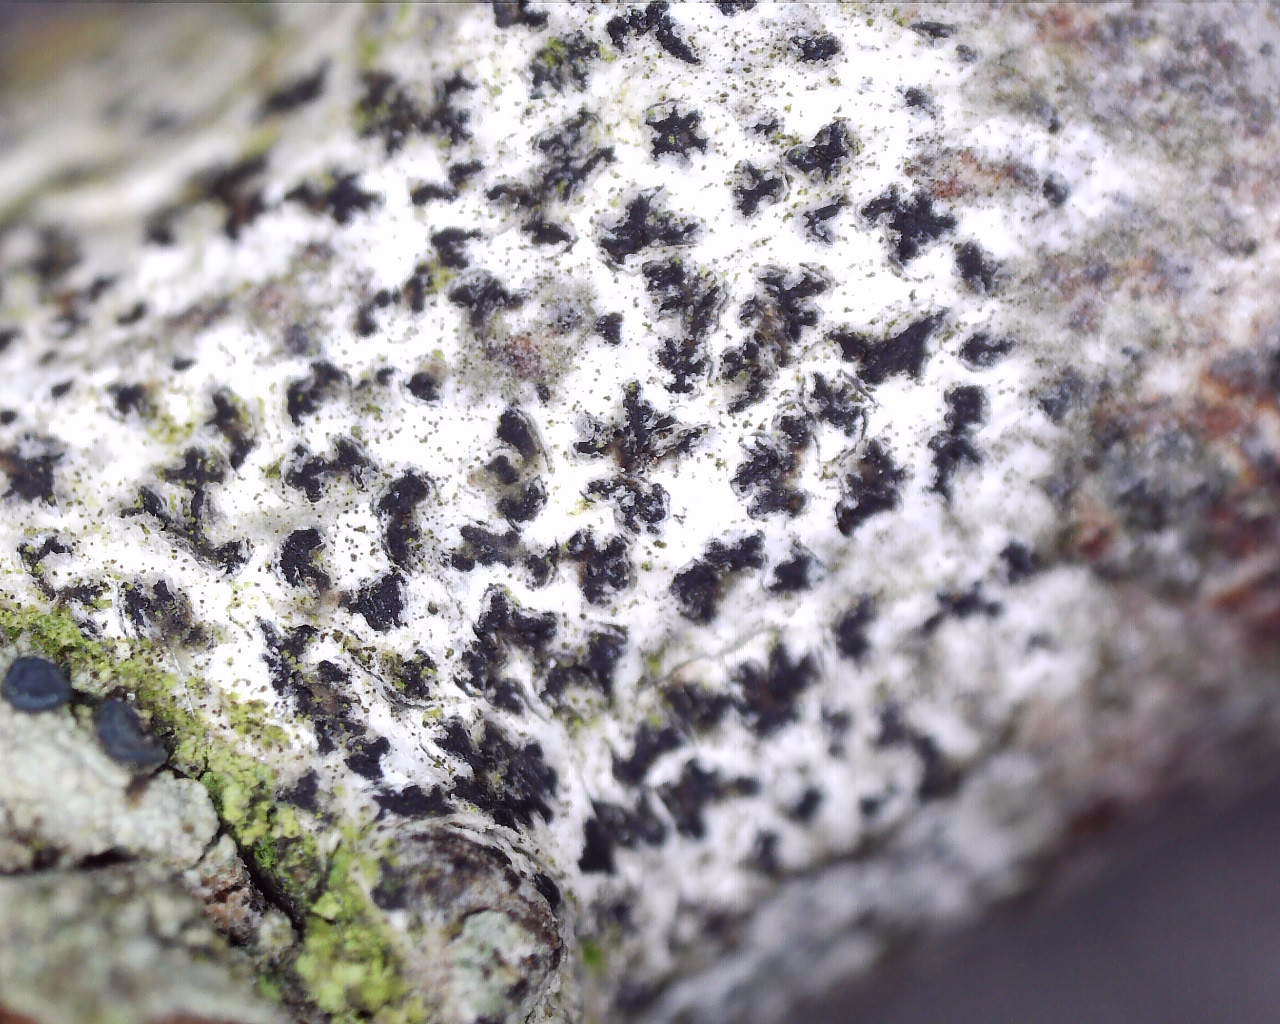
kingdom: Fungi
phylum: Ascomycota
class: Arthoniomycetes
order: Arthoniales
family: Arthoniaceae
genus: Arthonia
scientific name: Arthonia radiata
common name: stjerne-pletlav
